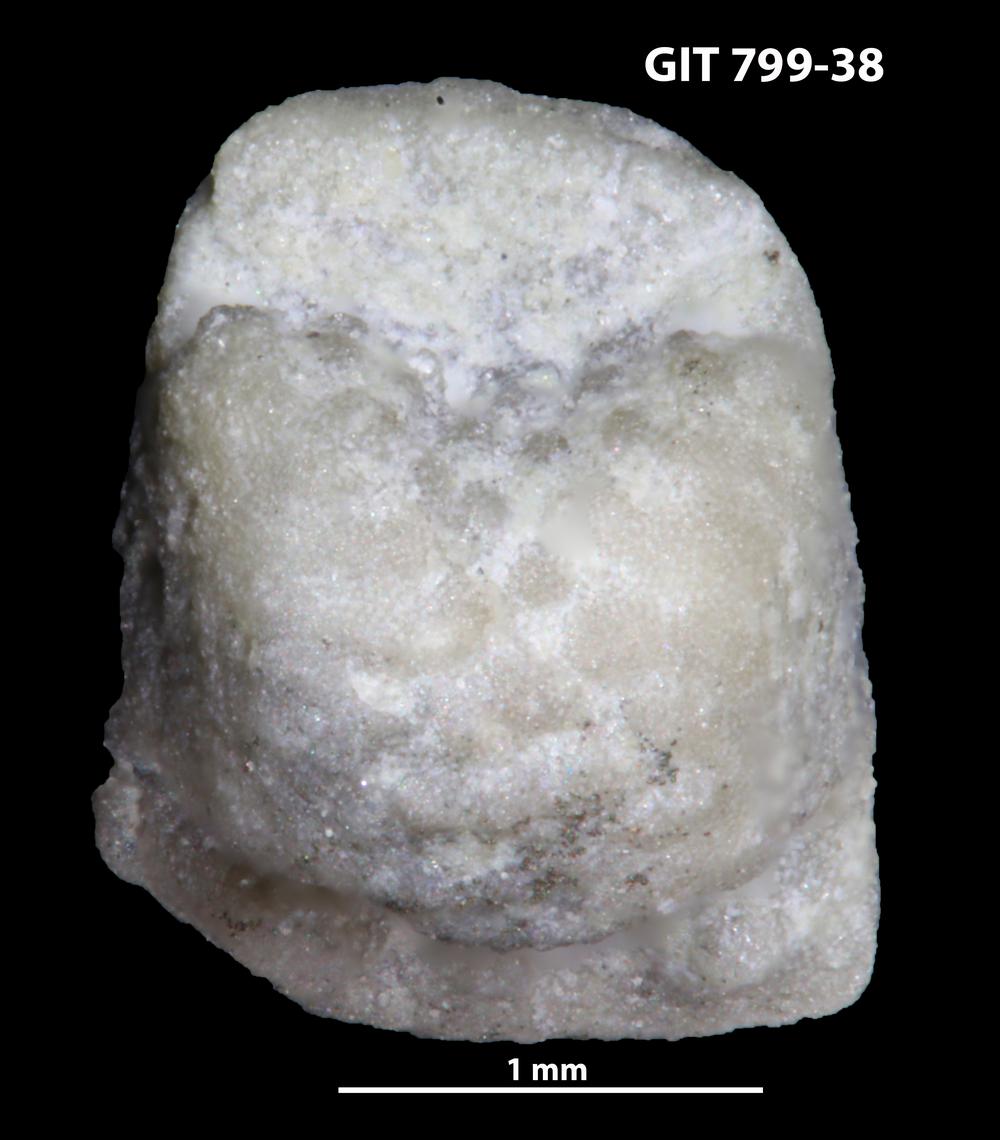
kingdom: Animalia
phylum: Echinodermata
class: Crinoidea
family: Cyclocystoididae
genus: Polytryphocycloides
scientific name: Polytryphocycloides Cyclocystoides lindstroemi
